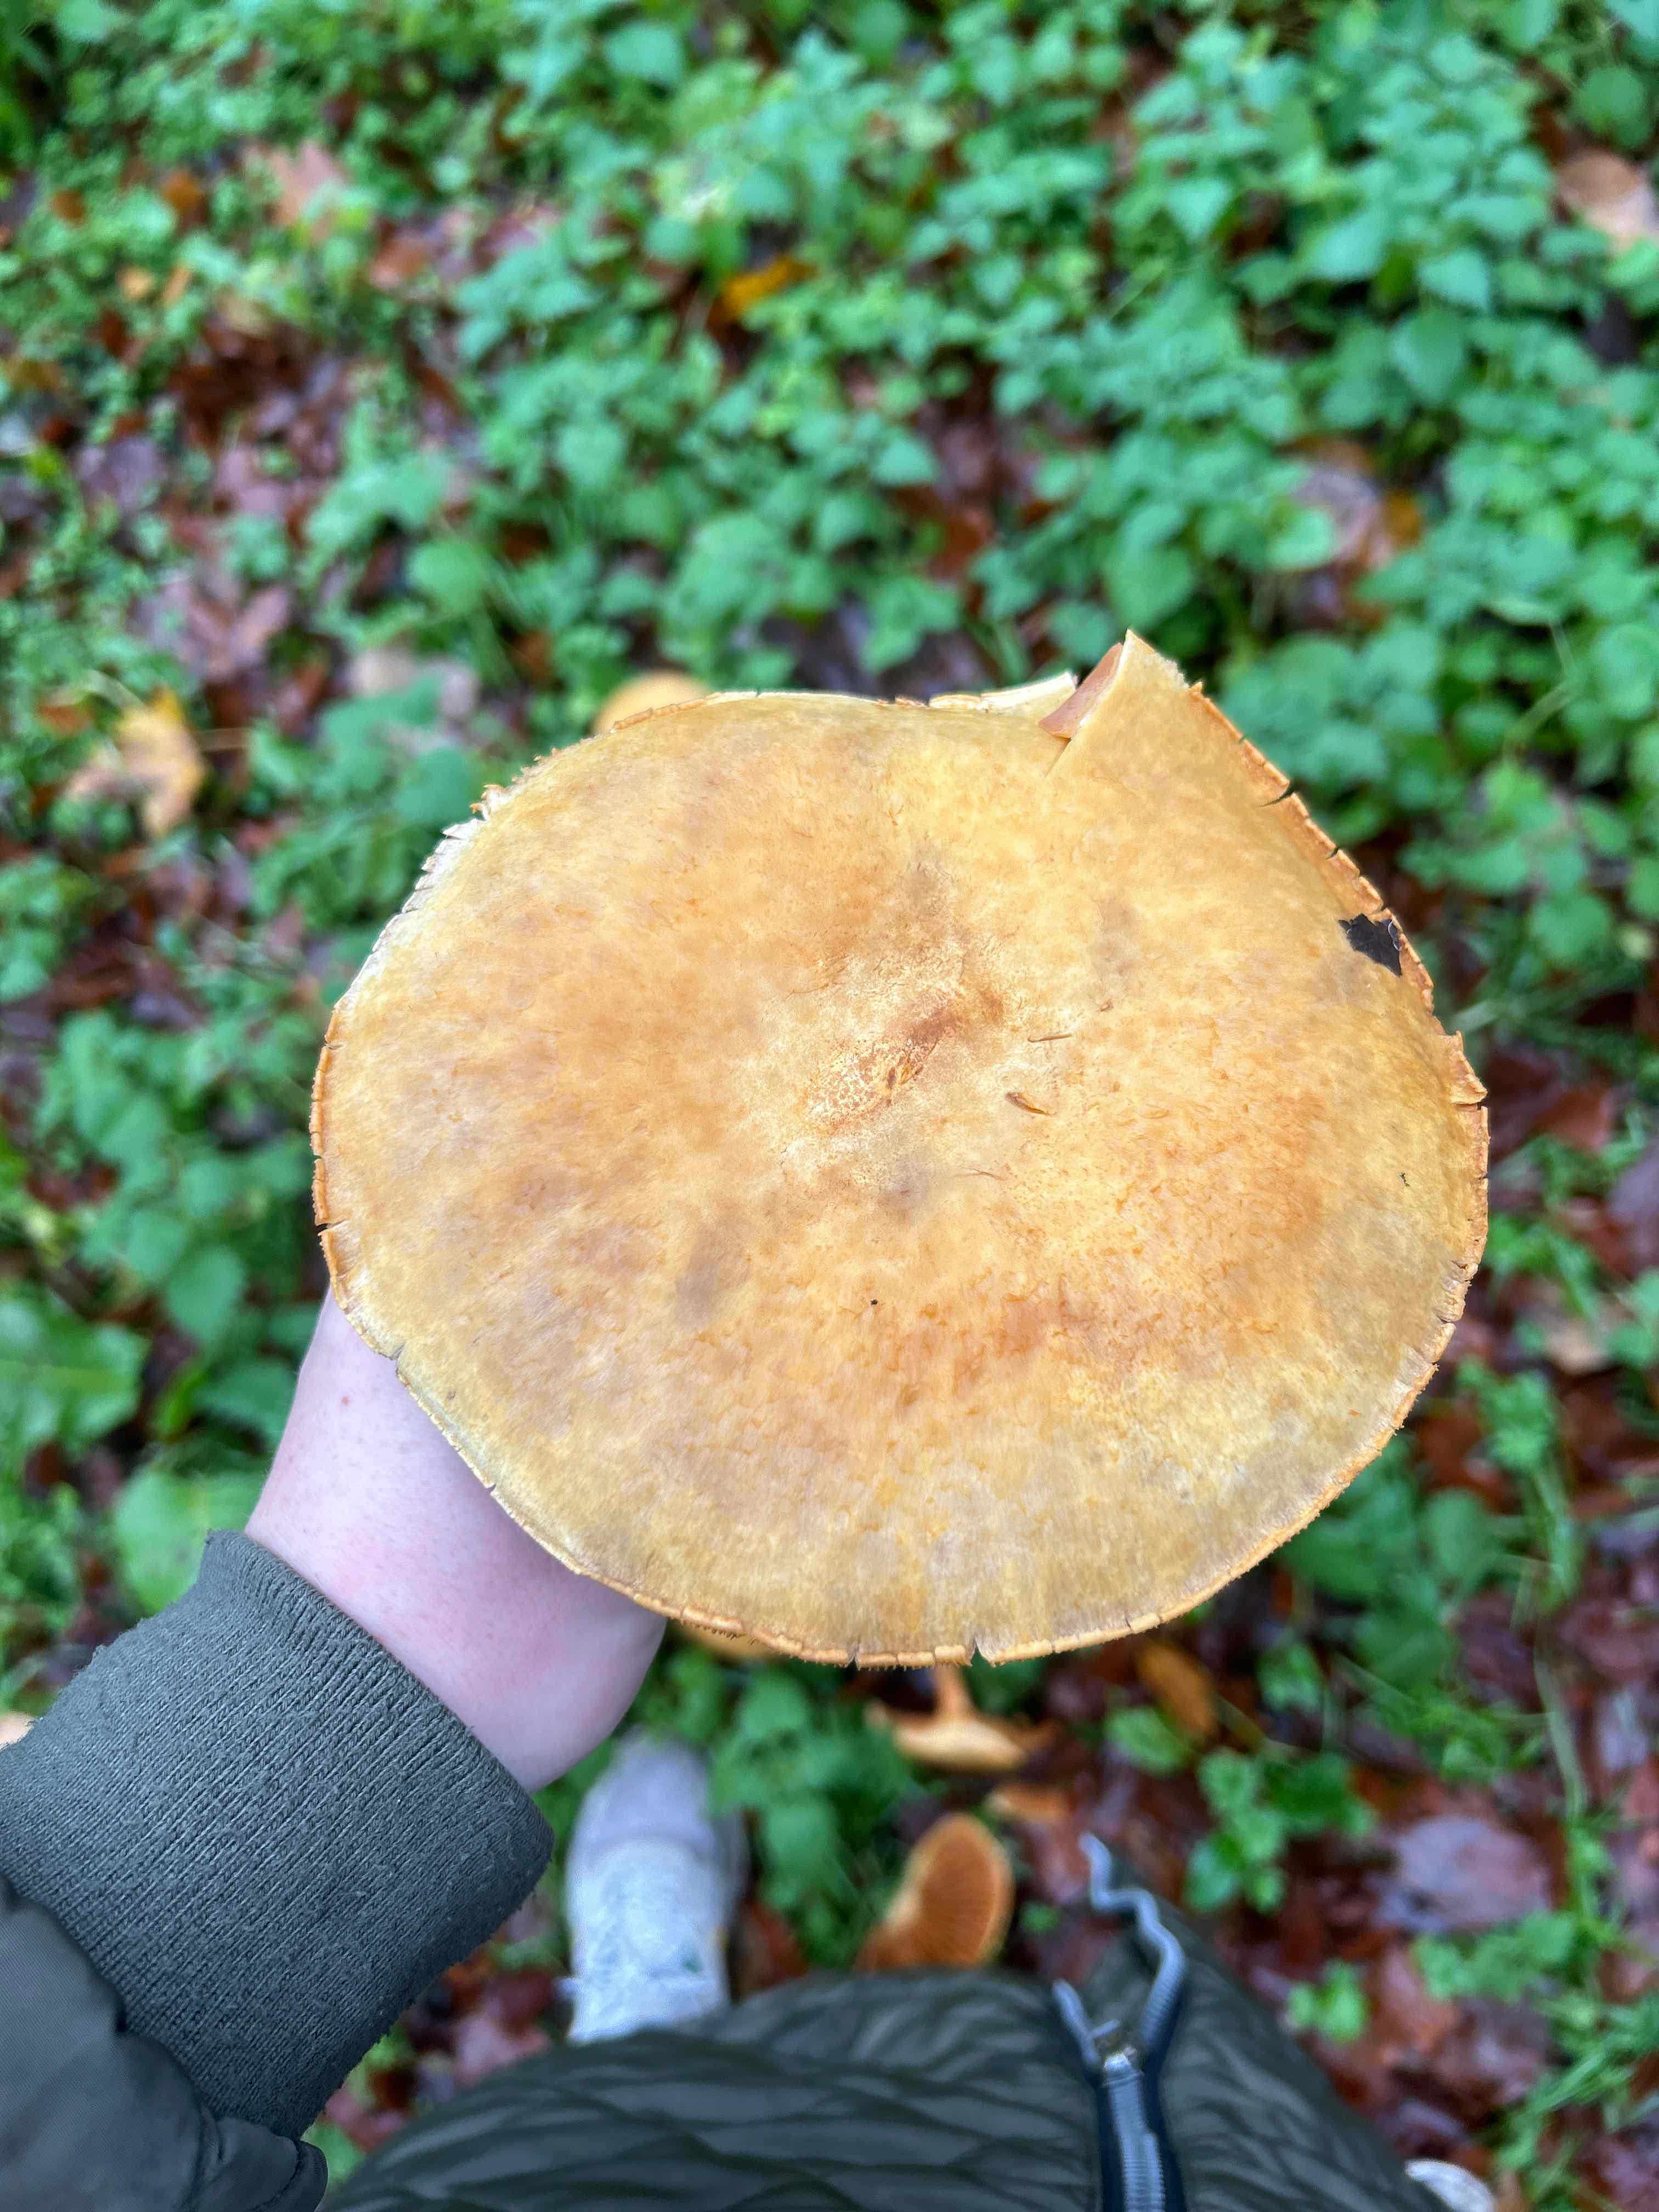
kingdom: Fungi
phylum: Basidiomycota
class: Agaricomycetes
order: Agaricales
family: Tricholomataceae
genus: Phaeolepiota
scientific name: Phaeolepiota aurea
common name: gyldenhat
